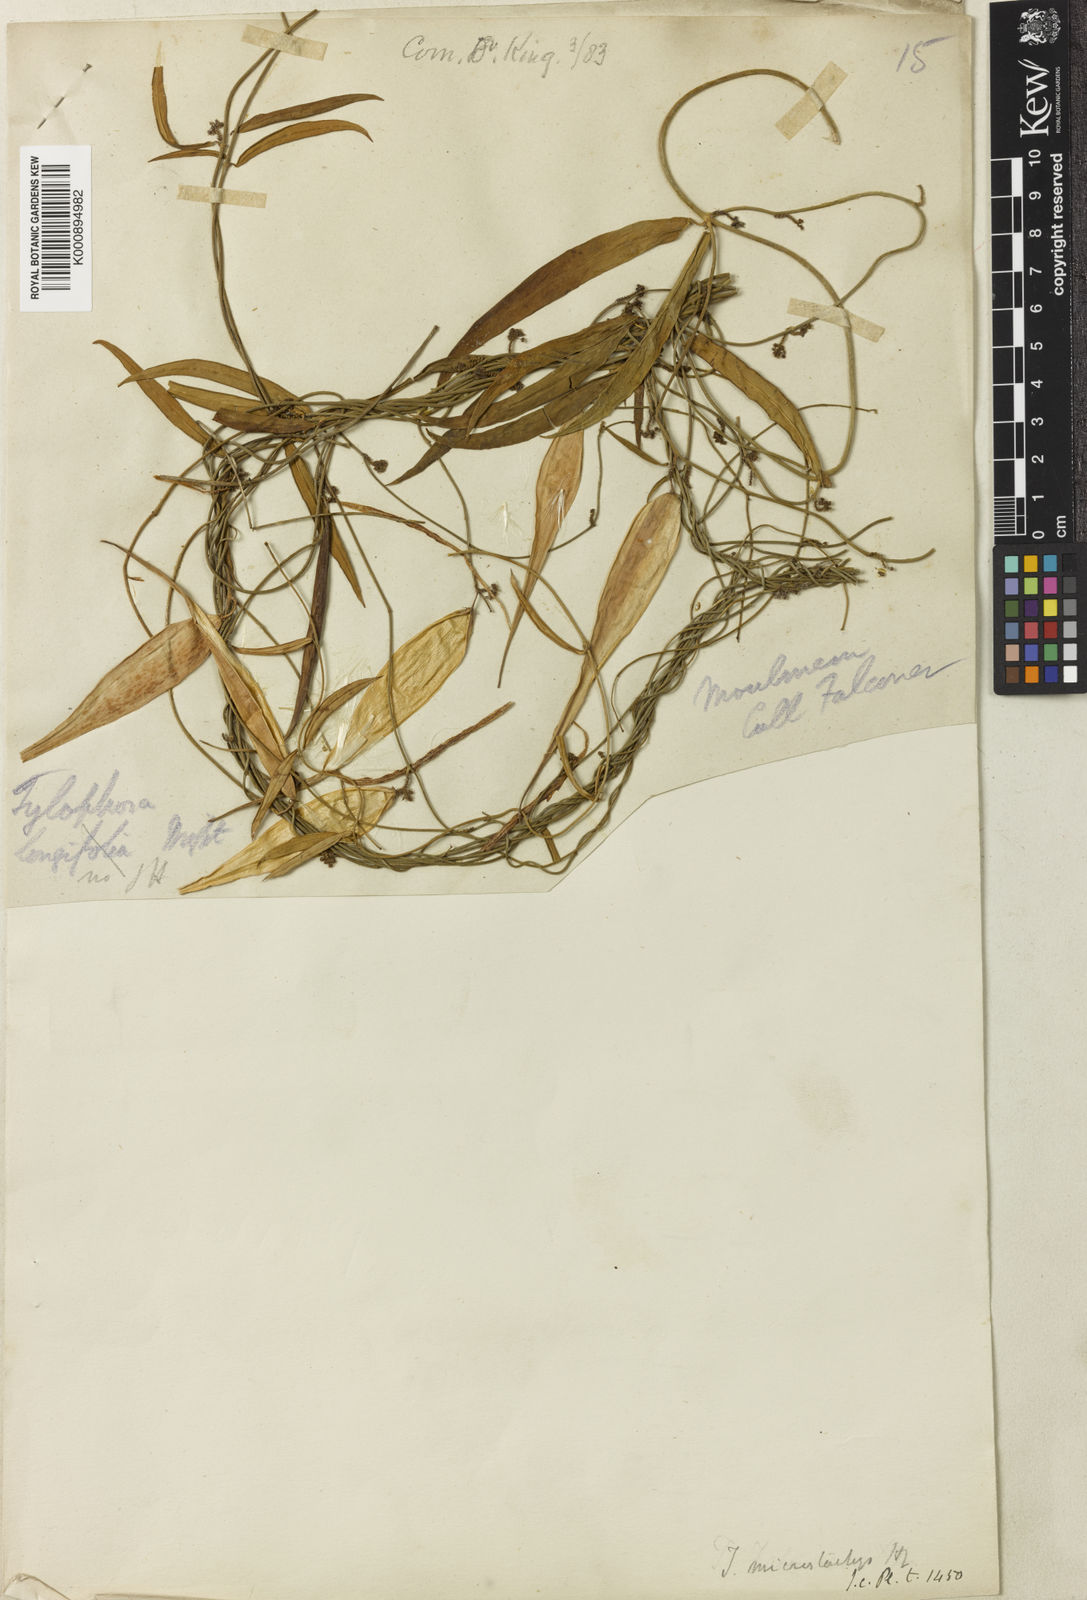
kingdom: Plantae
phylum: Tracheophyta
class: Magnoliopsida
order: Gentianales
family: Apocynaceae
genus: Vincetoxicum
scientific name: Vincetoxicum microstachys
